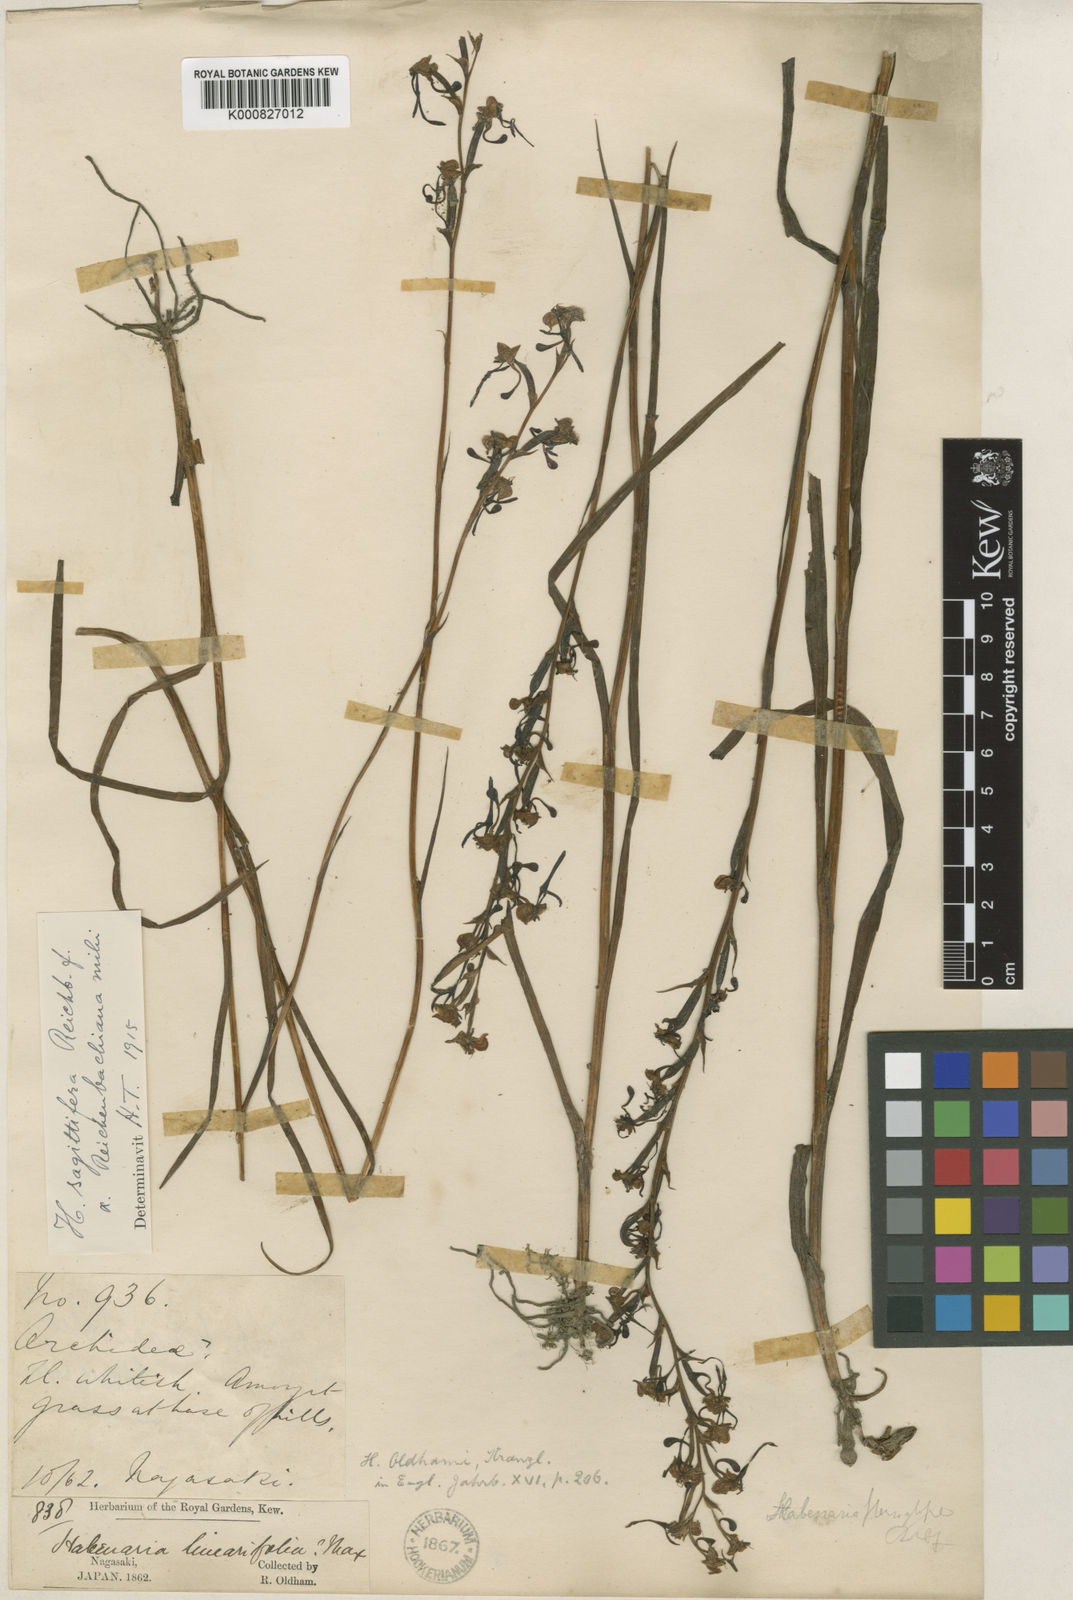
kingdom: Plantae
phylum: Tracheophyta
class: Liliopsida
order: Asparagales
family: Orchidaceae
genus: Habenaria
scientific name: Habenaria sagittifera
